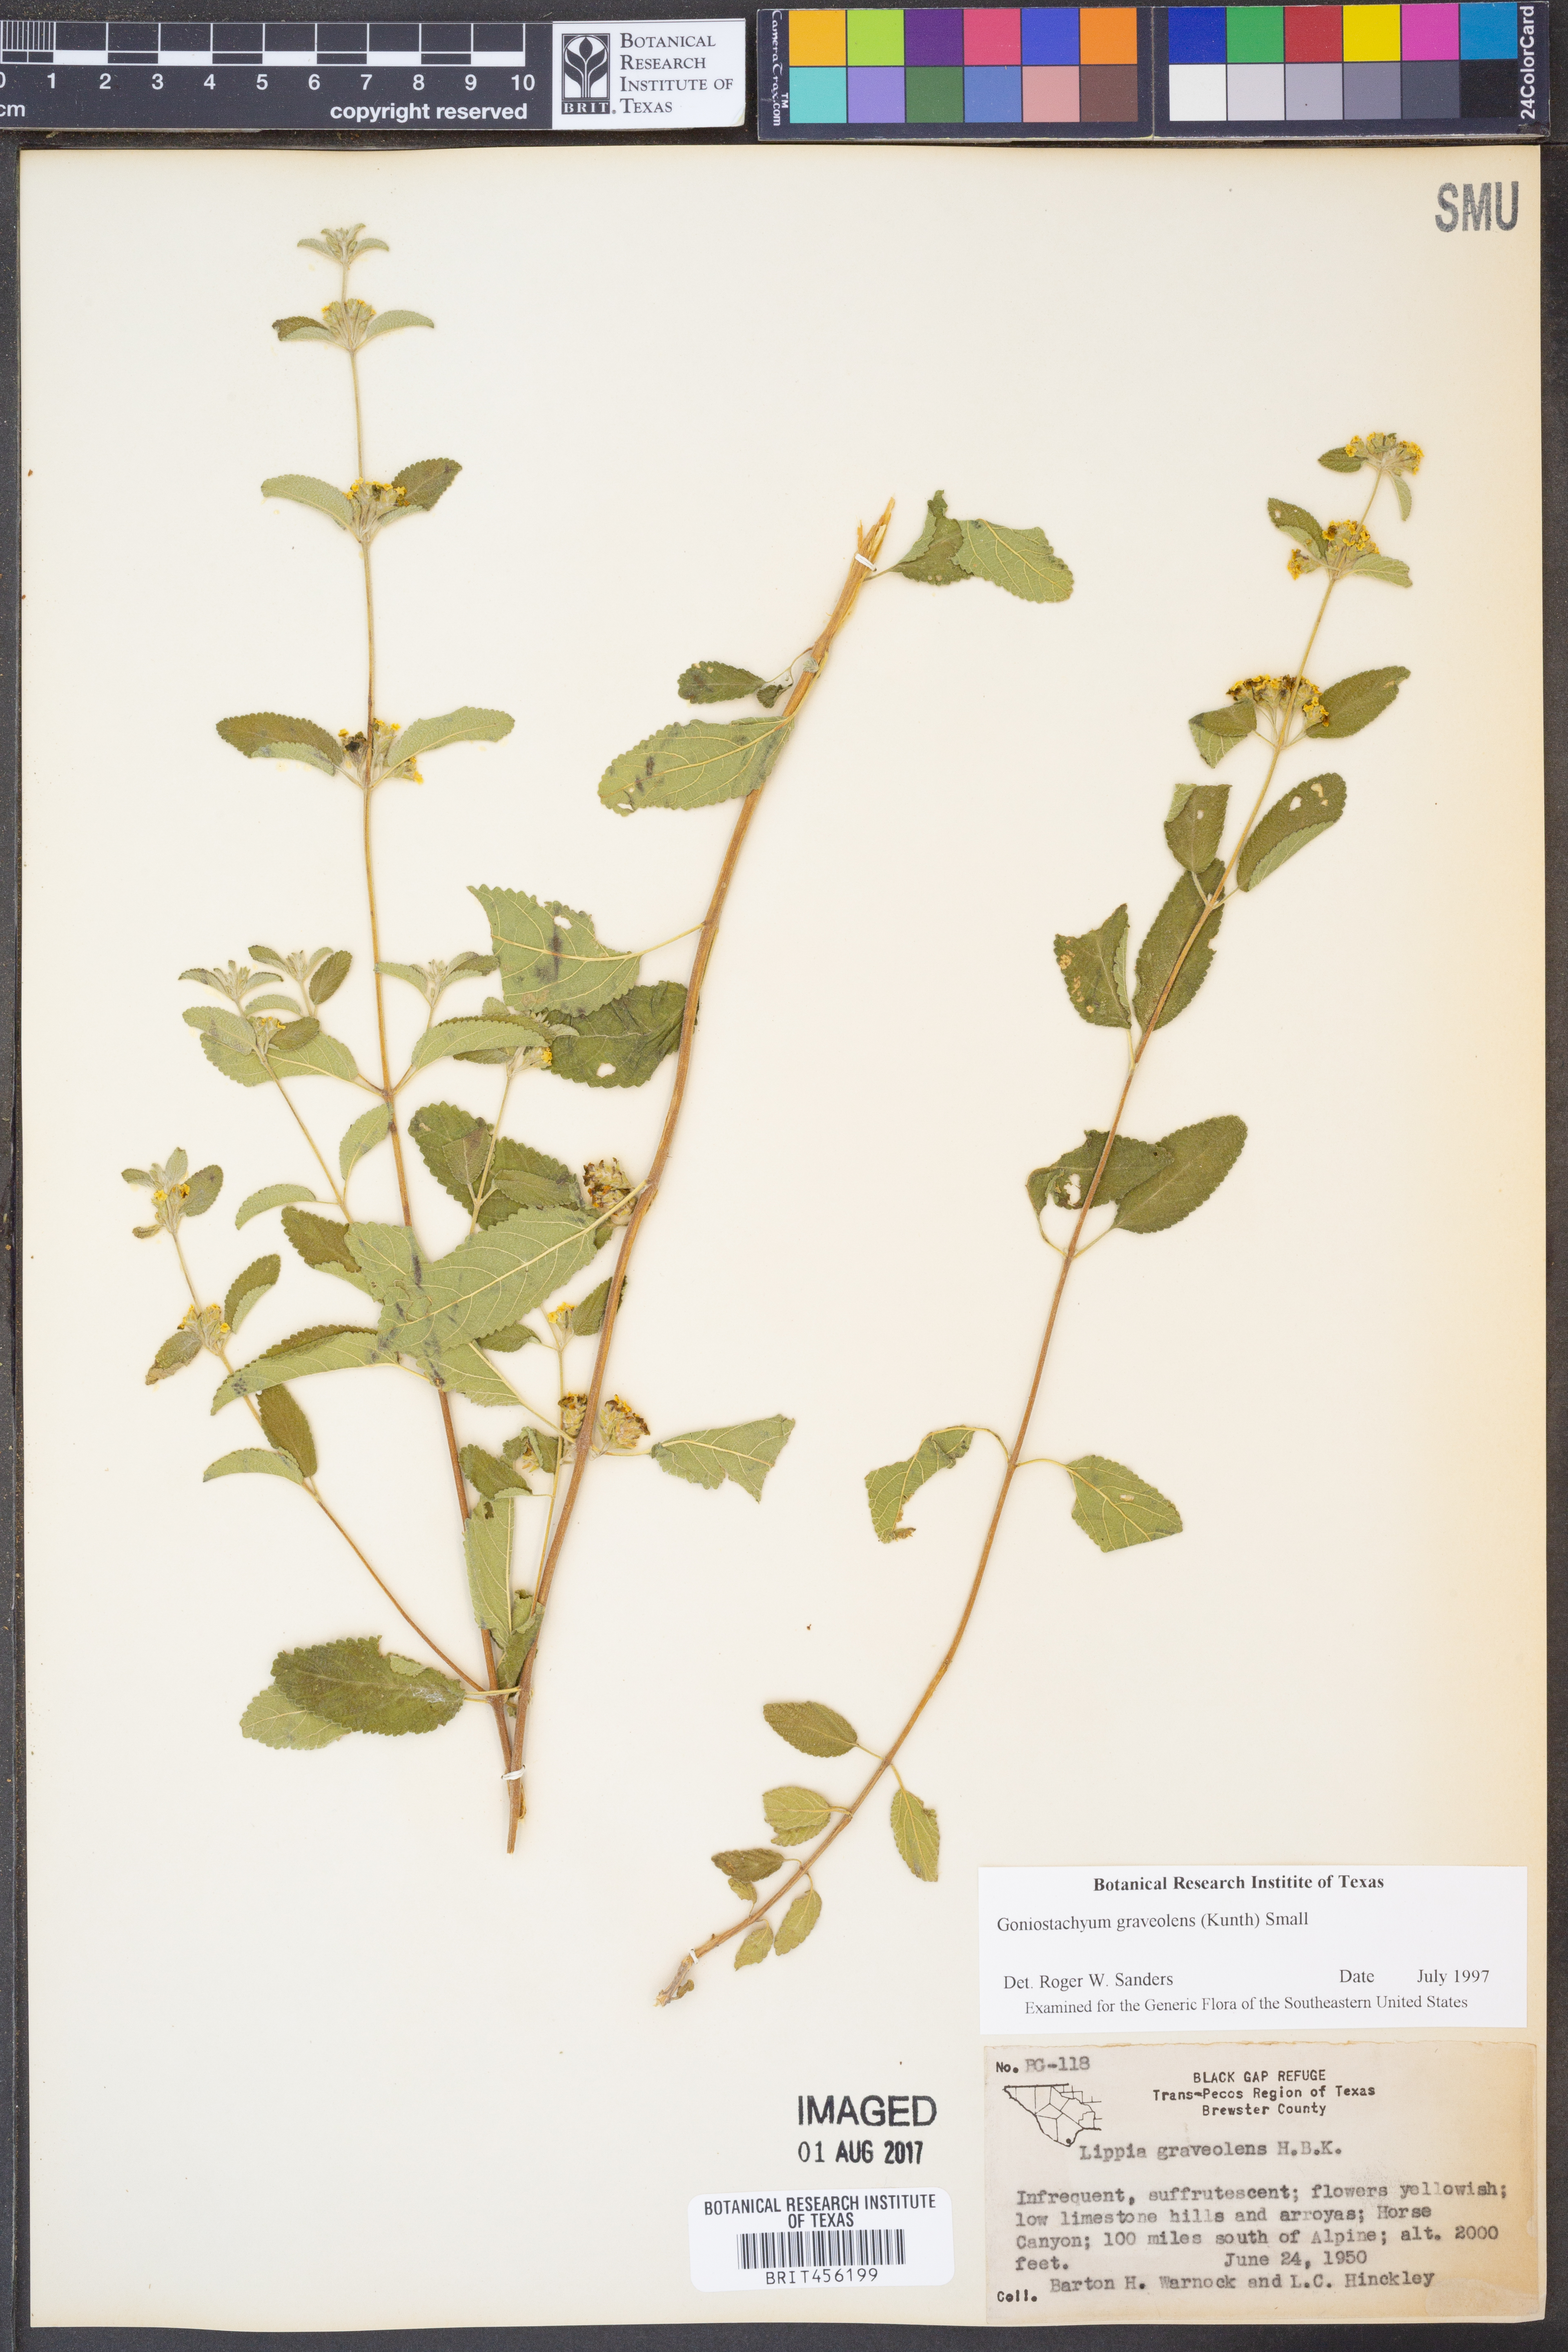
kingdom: Plantae
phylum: Tracheophyta
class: Magnoliopsida
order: Lamiales
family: Verbenaceae
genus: Lippia
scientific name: Lippia origanoides
